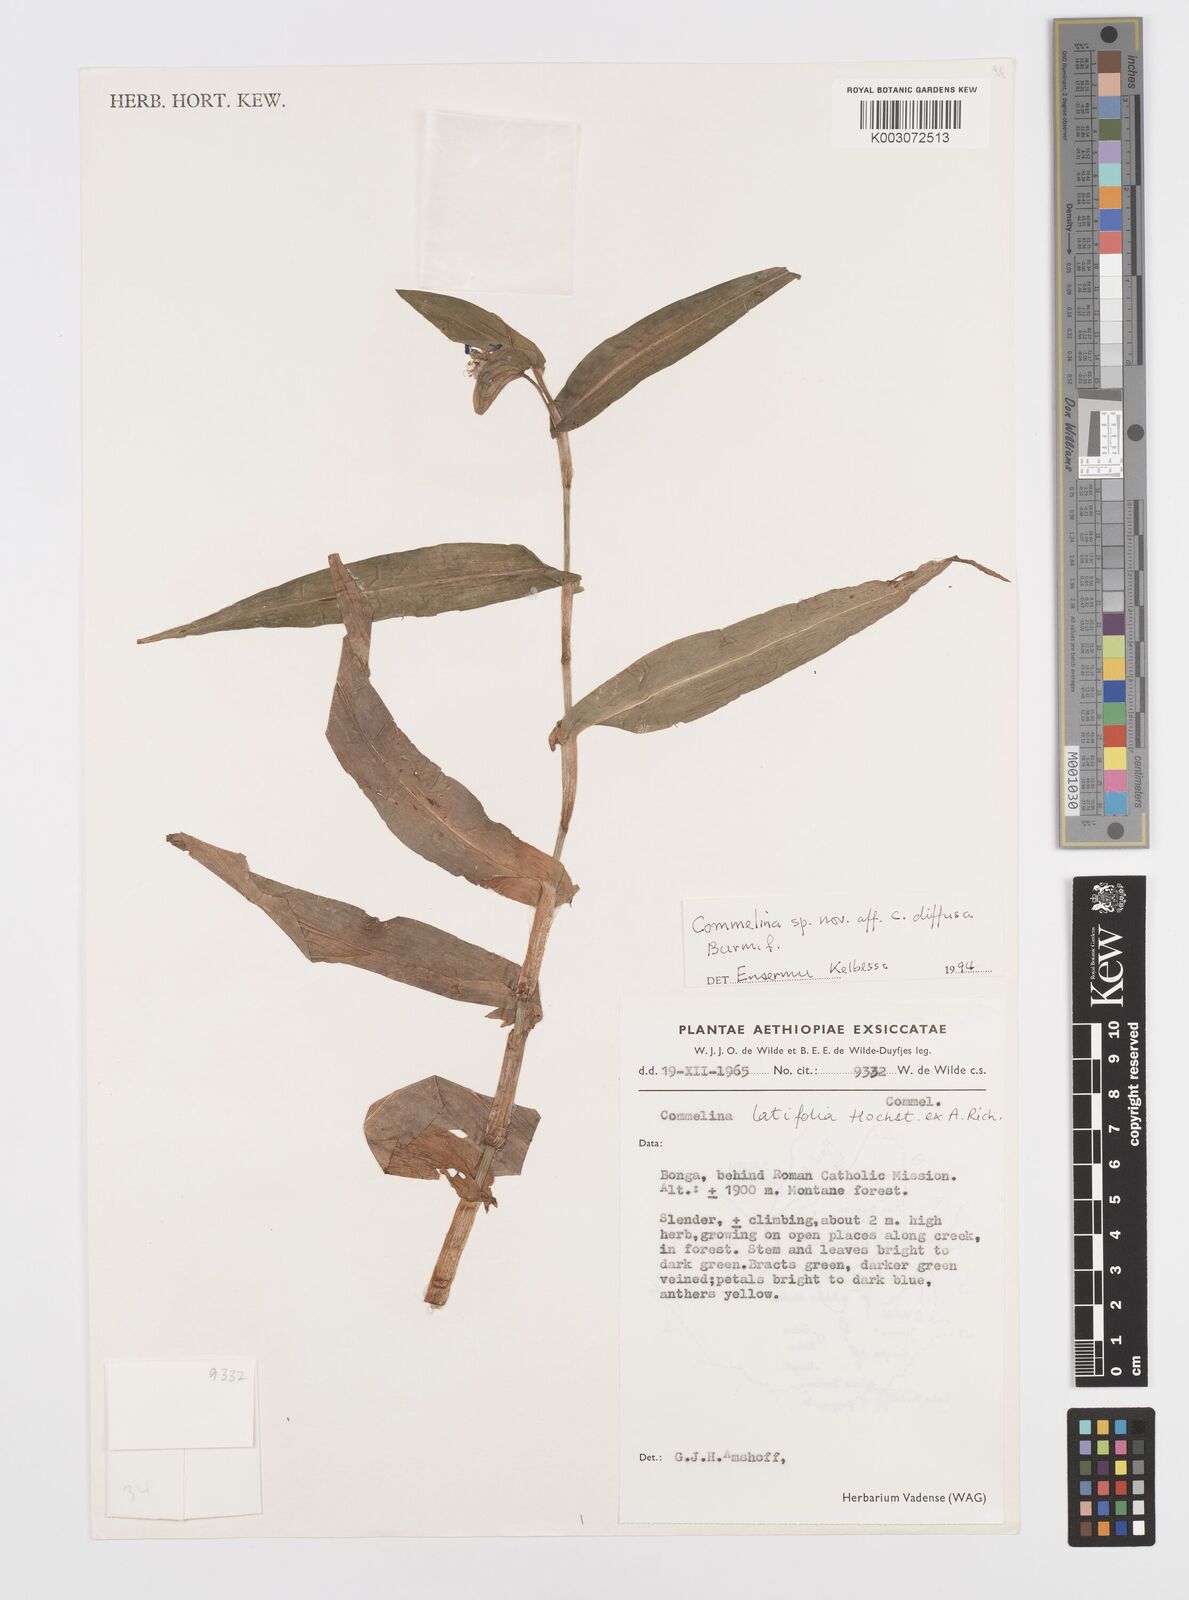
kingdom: Plantae
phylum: Tracheophyta
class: Liliopsida
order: Commelinales
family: Commelinaceae
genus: Commelina
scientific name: Commelina diffusa
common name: Climbing dayflower
